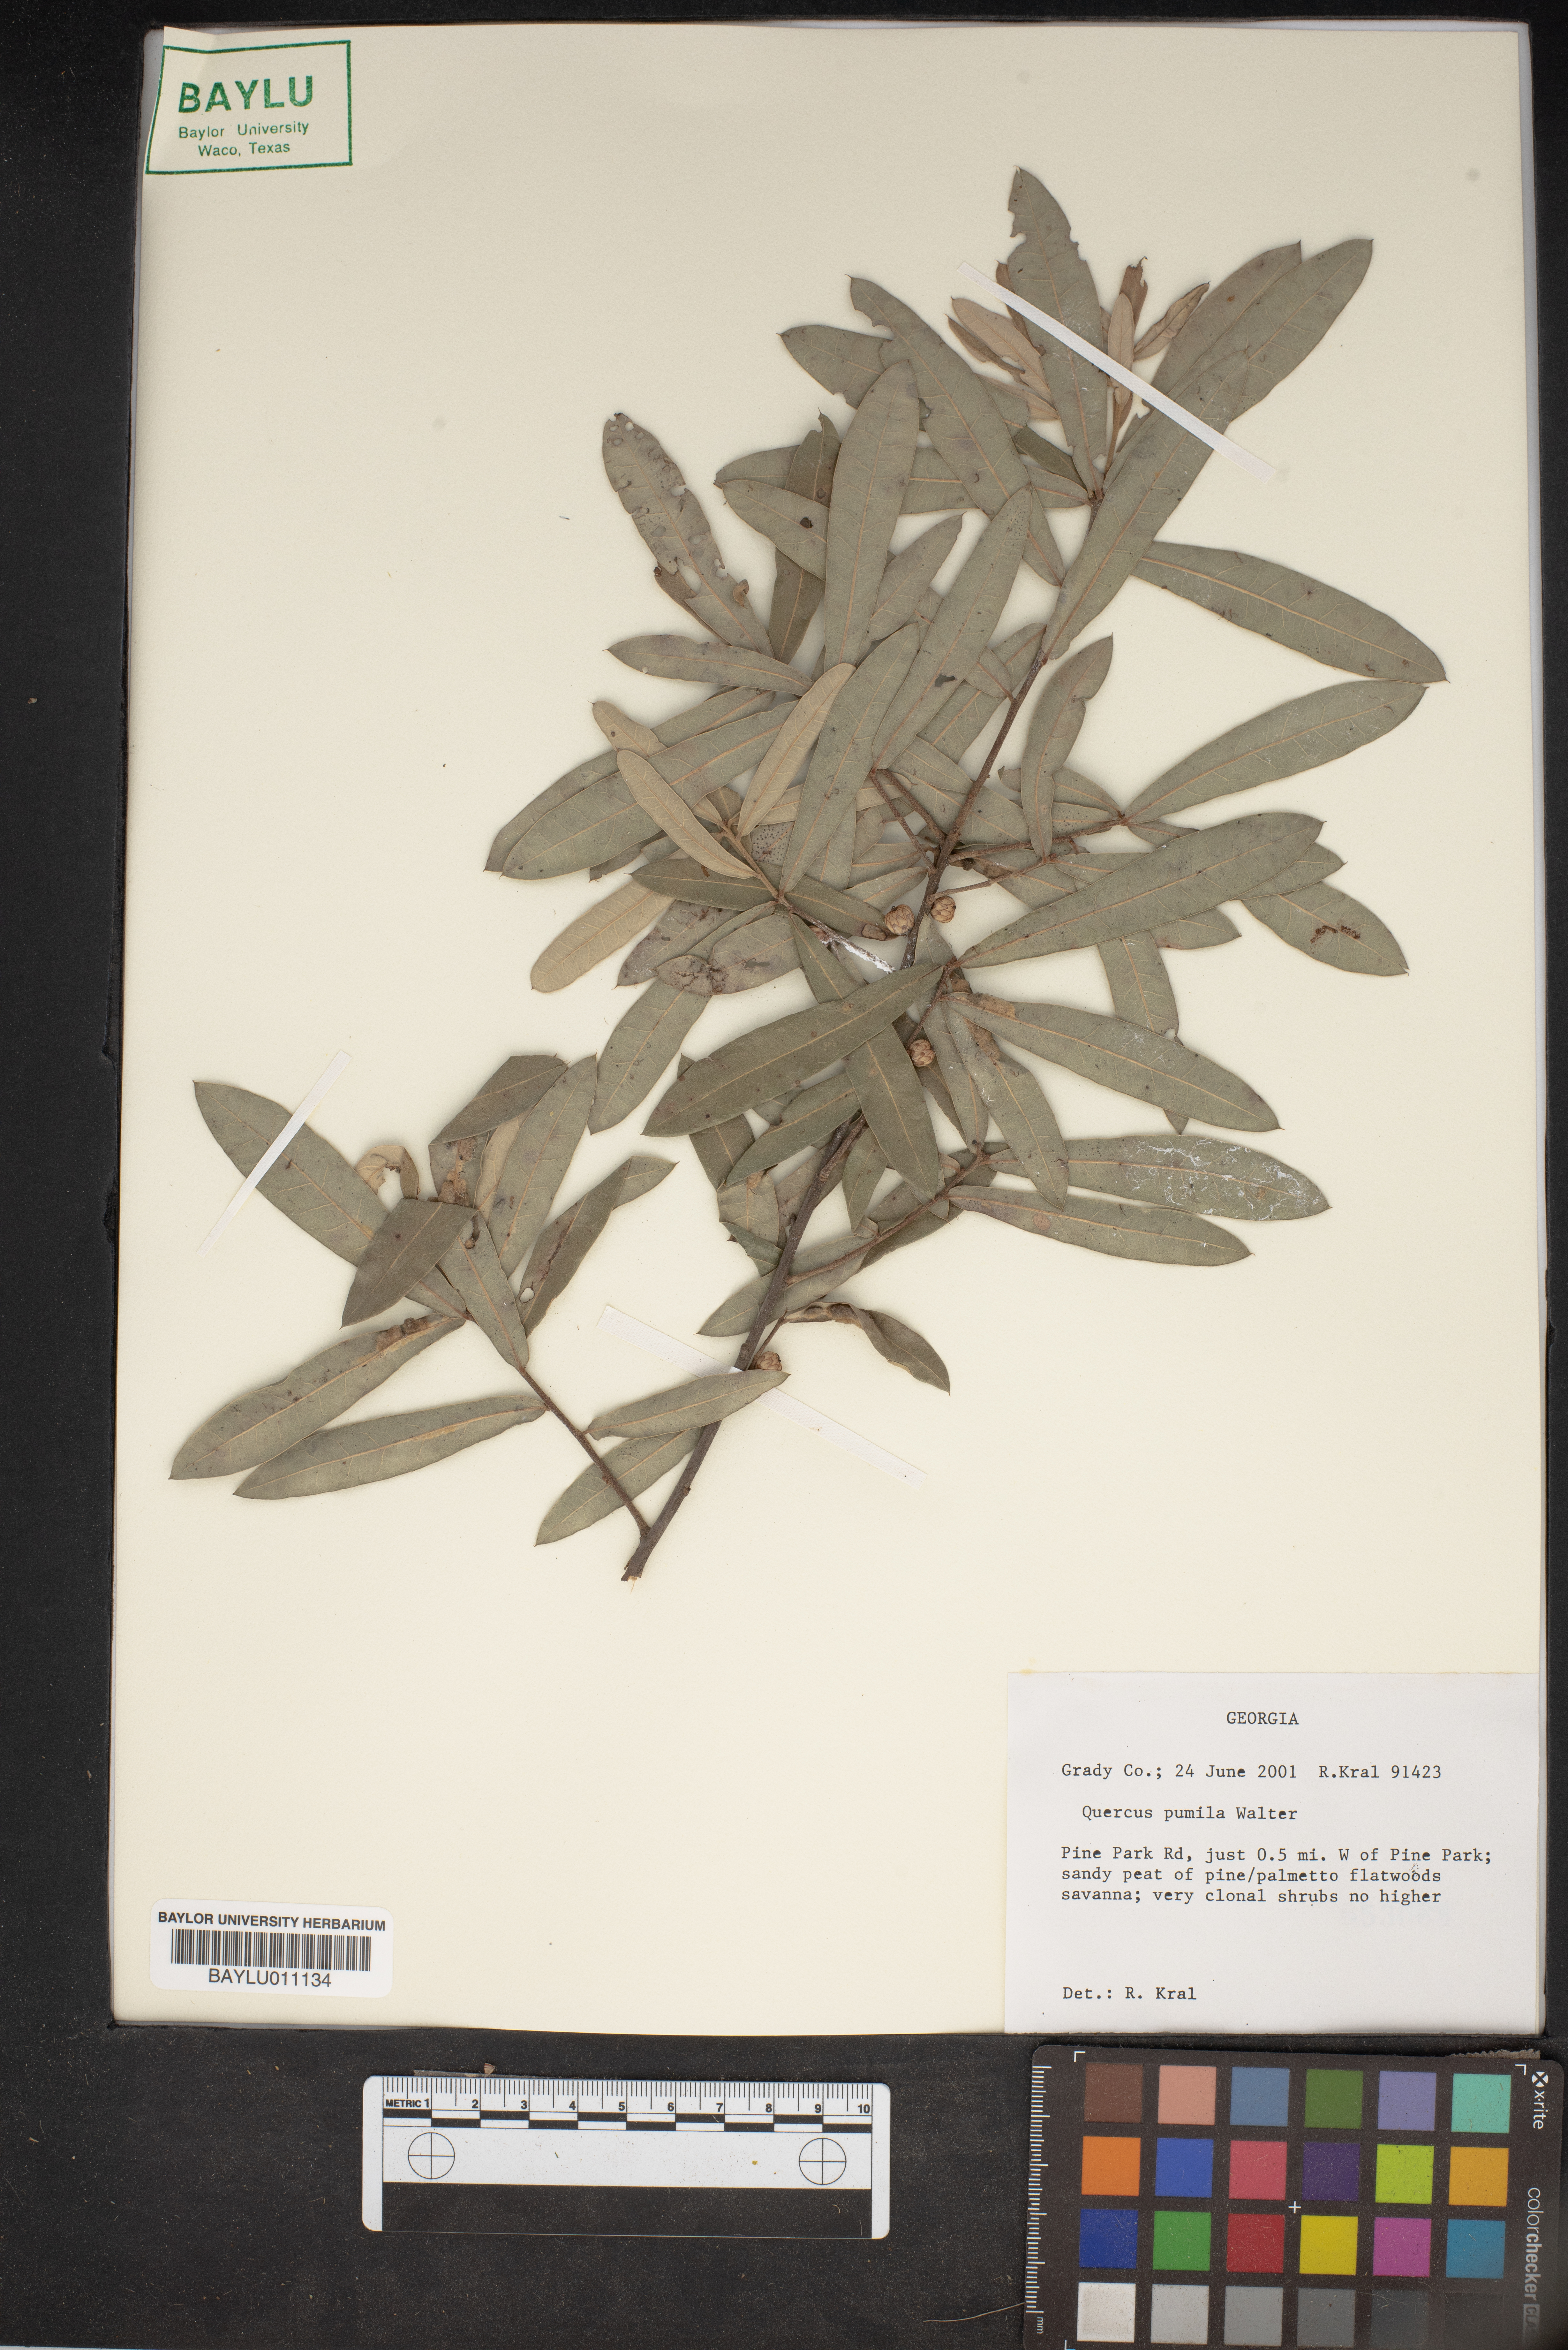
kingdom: Plantae
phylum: Tracheophyta
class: Magnoliopsida
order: Fagales
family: Fagaceae
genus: Quercus
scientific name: Quercus pumila
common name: Runner oak
